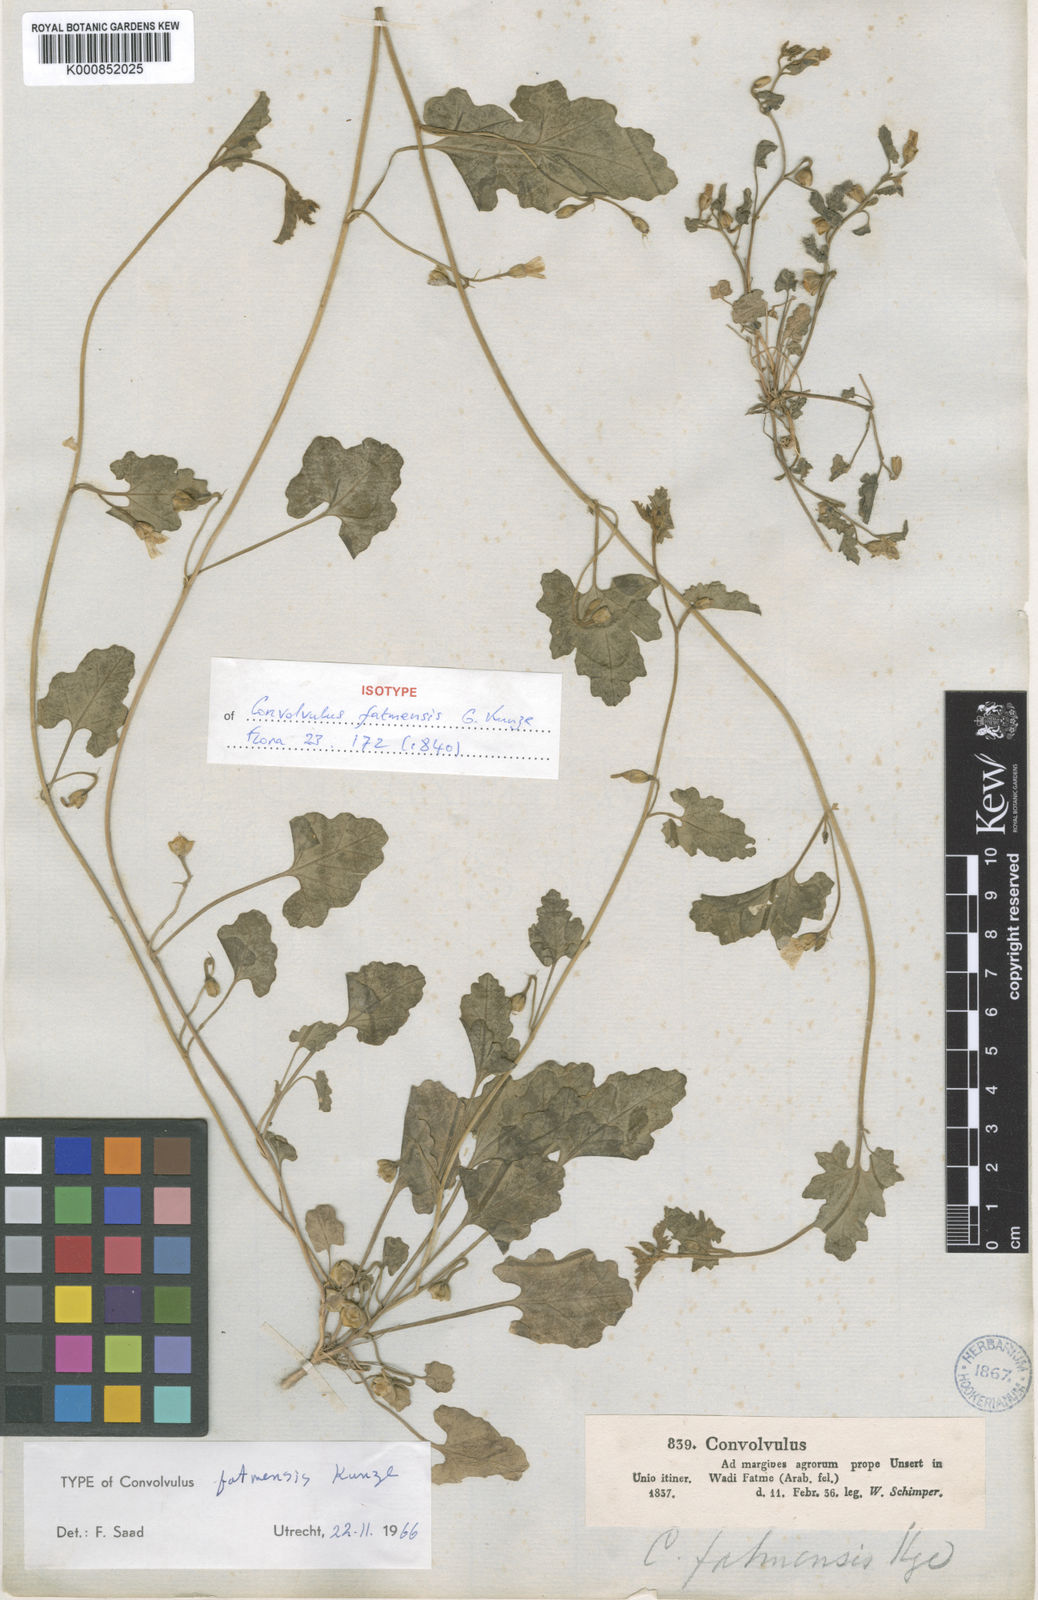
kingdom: Plantae
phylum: Tracheophyta
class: Magnoliopsida
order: Solanales
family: Convolvulaceae
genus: Convolvulus
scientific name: Convolvulus fatmensis
